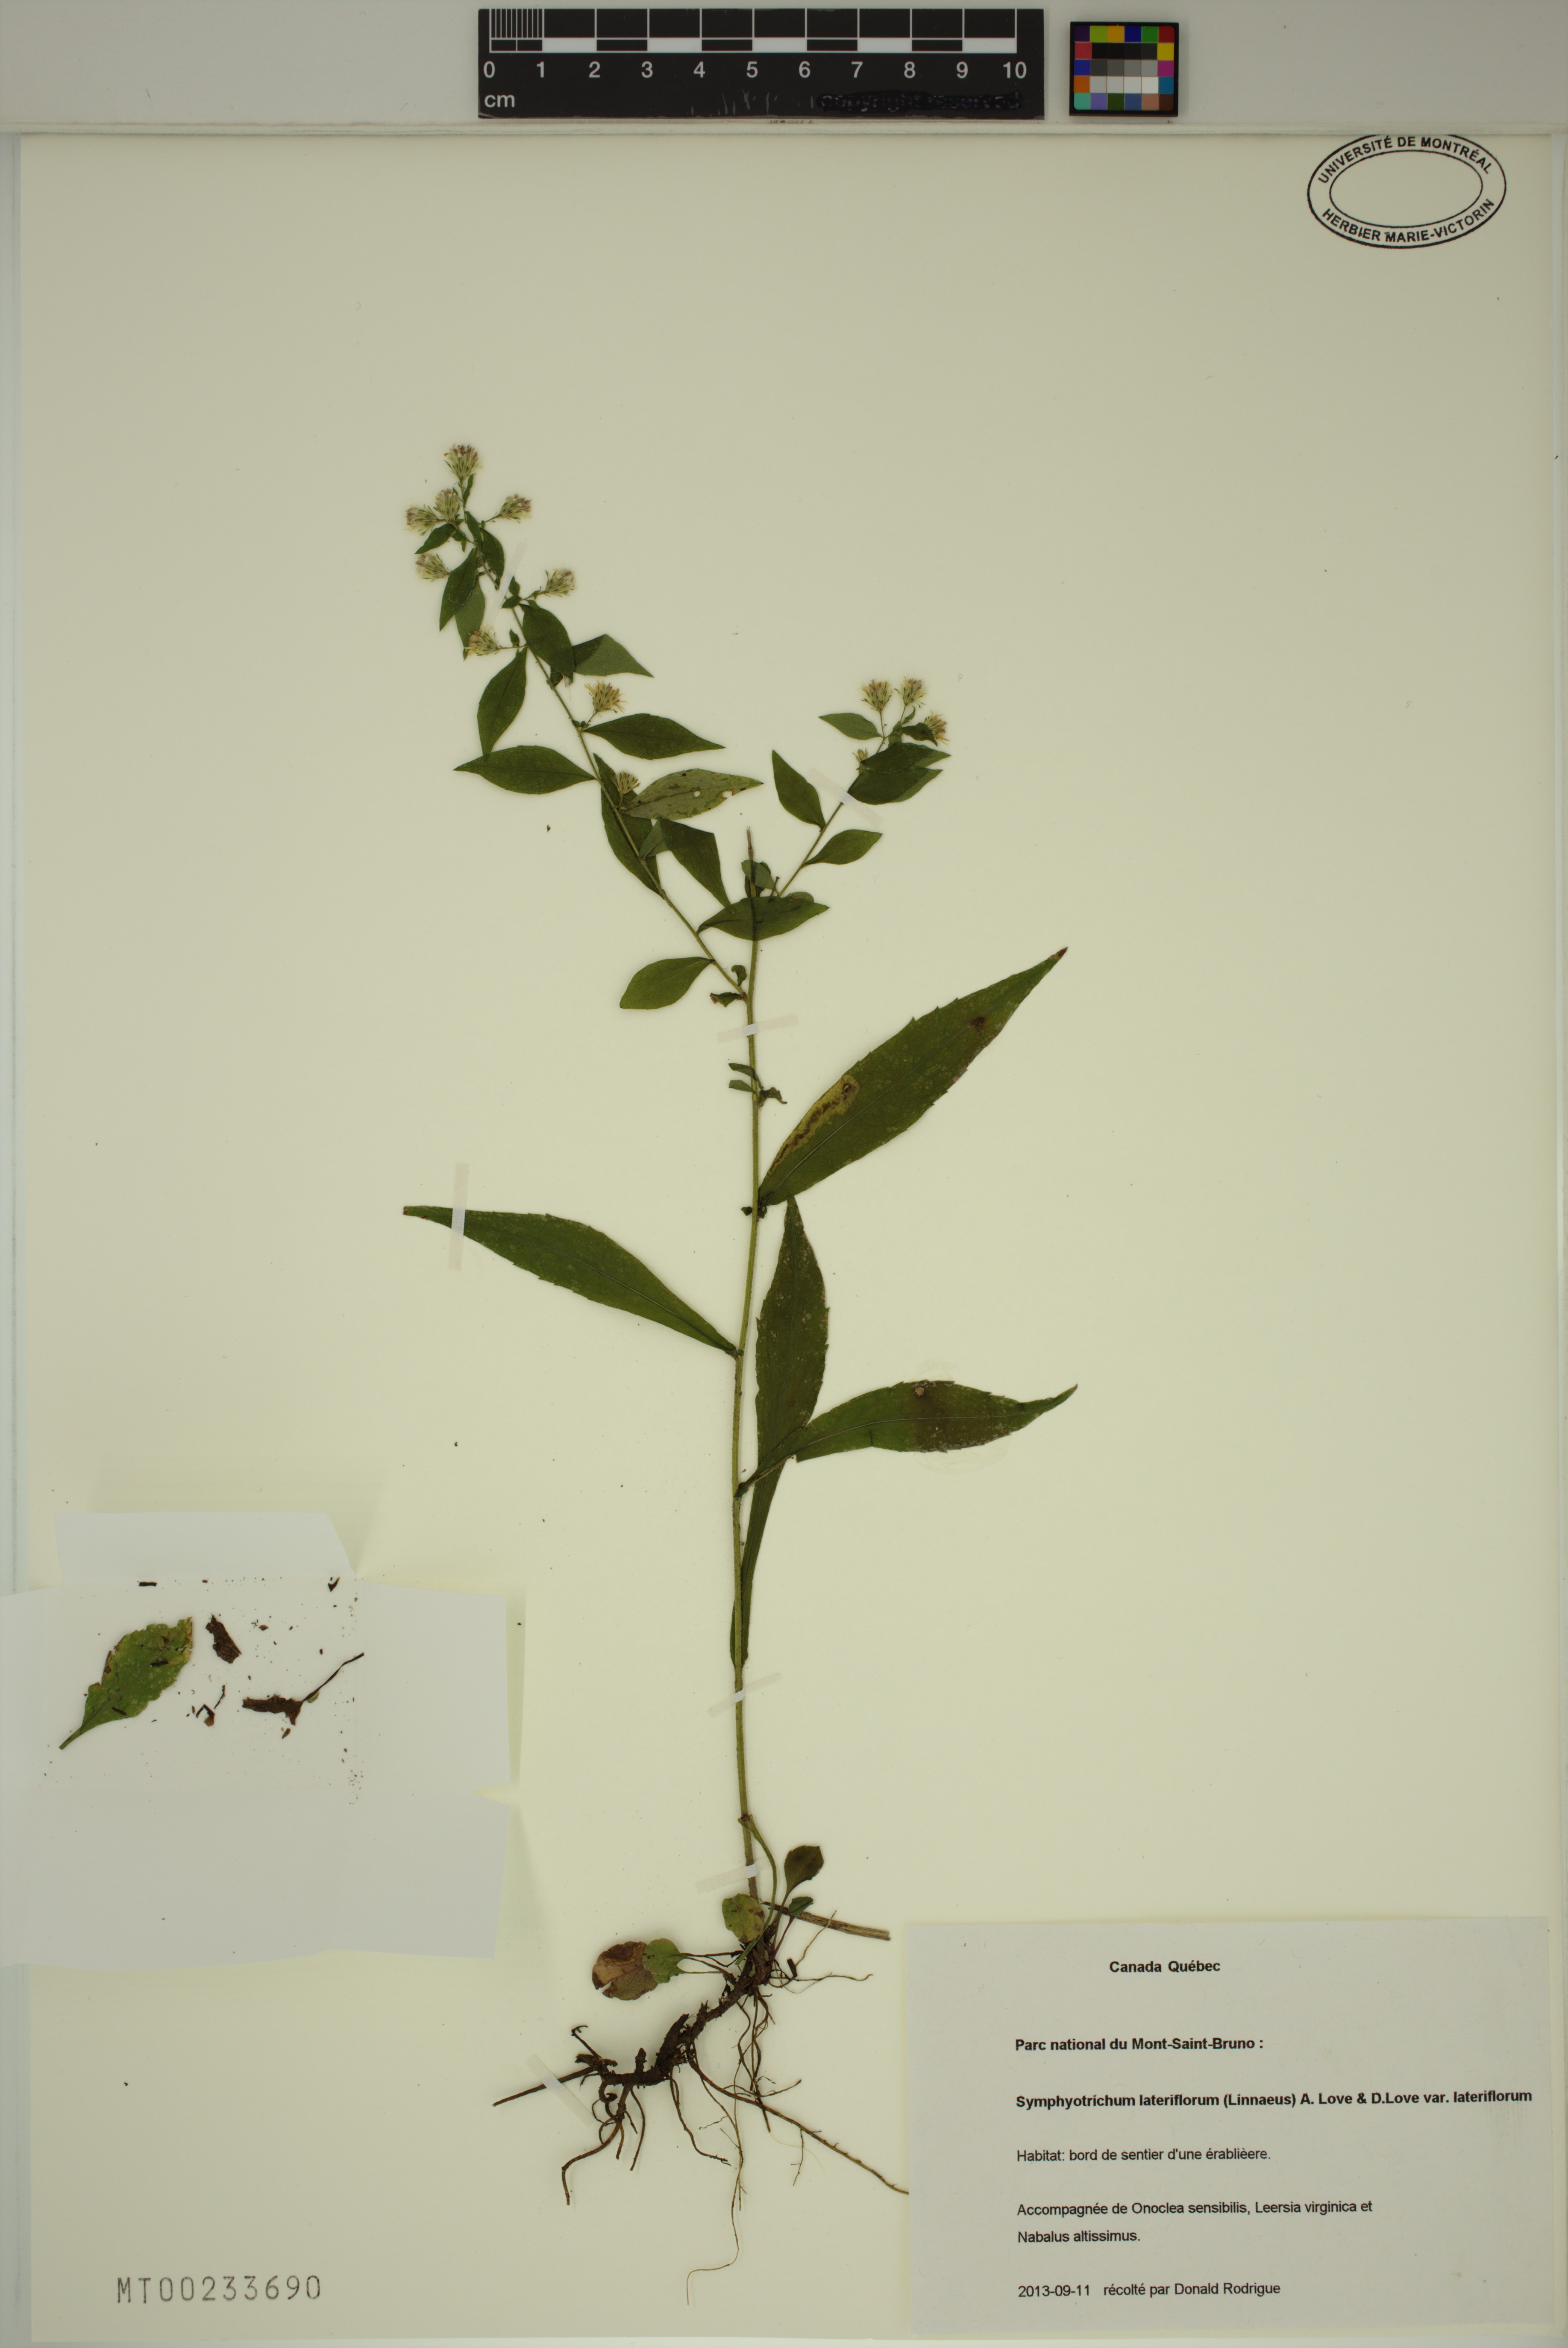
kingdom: Plantae
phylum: Tracheophyta
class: Magnoliopsida
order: Asterales
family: Asteraceae
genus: Symphyotrichum
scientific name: Symphyotrichum lateriflorum
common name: Calico aster
